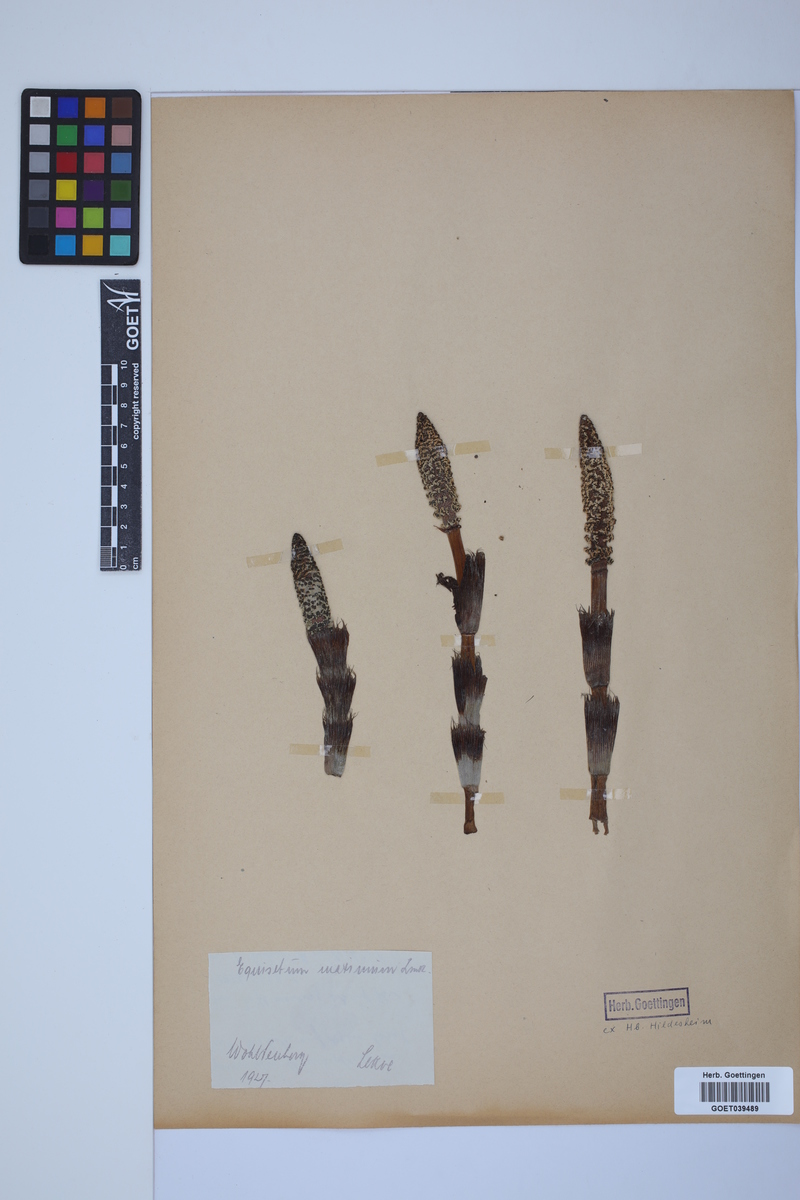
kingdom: Plantae
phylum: Tracheophyta
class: Polypodiopsida
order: Equisetales
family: Equisetaceae
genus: Equisetum
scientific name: Equisetum telmateia
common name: Great horsetail
